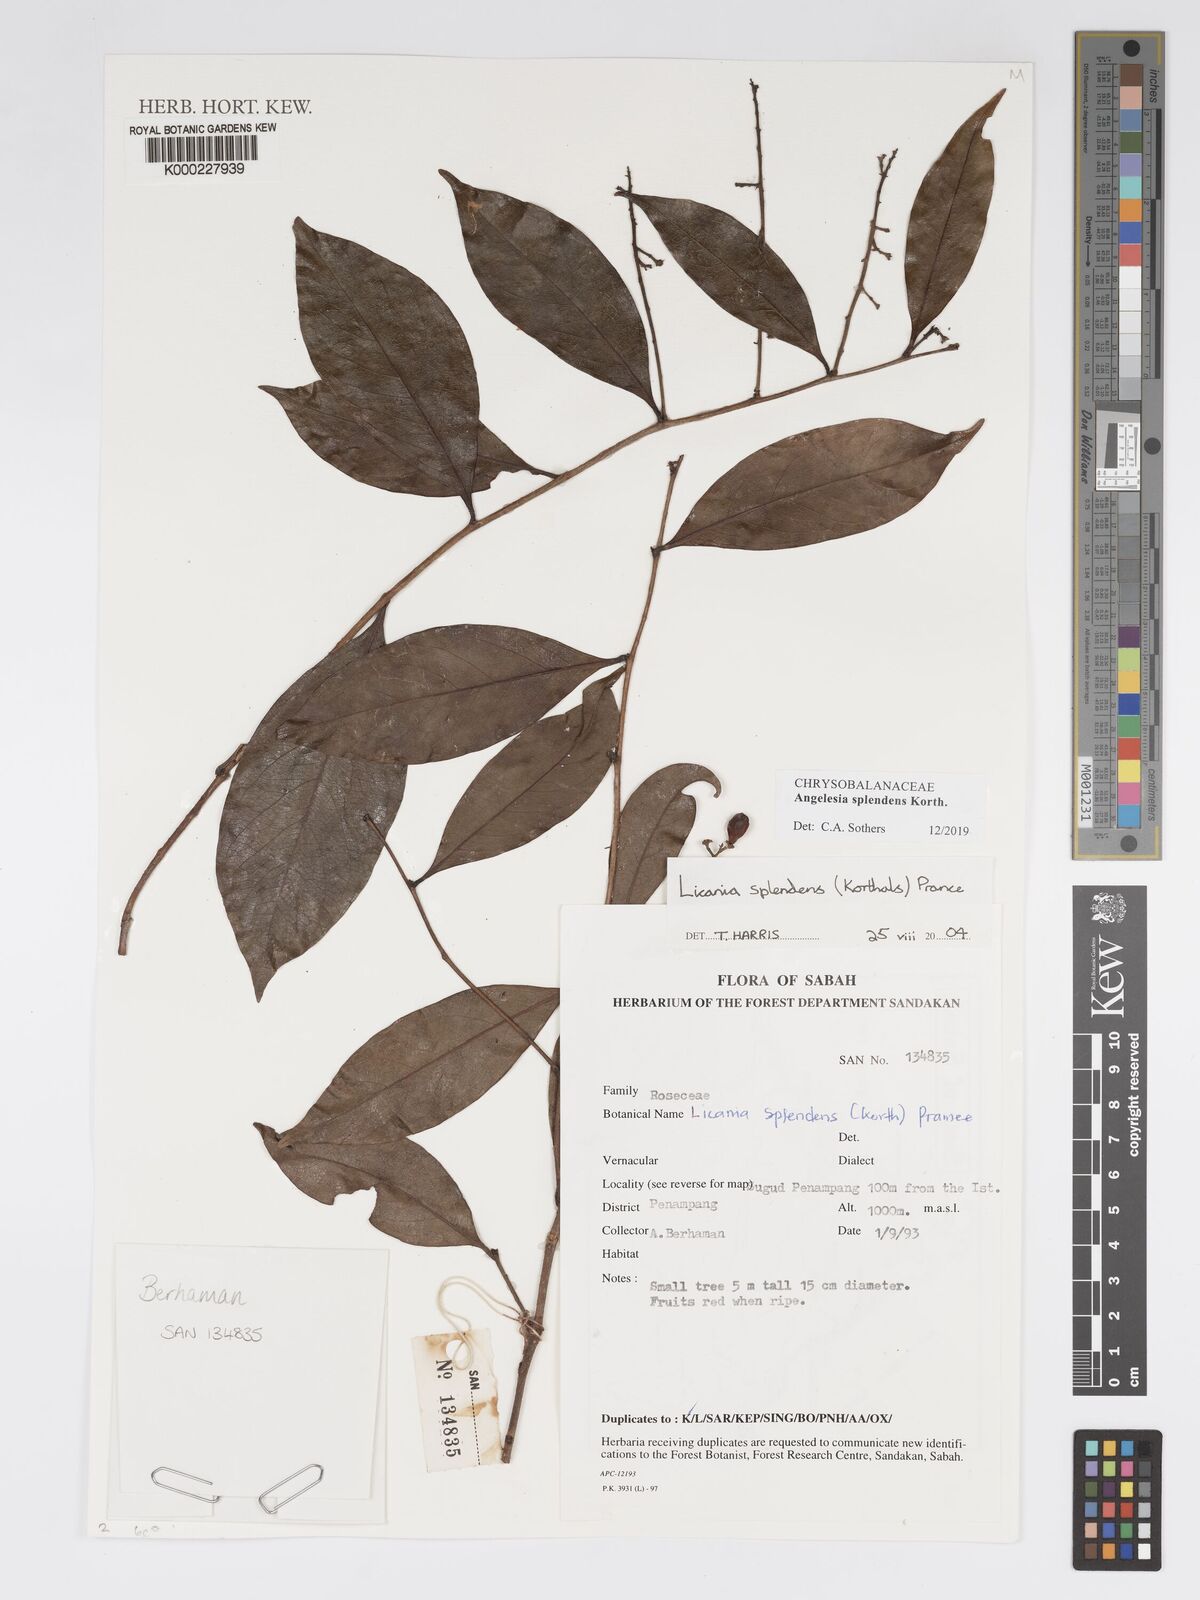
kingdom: Plantae
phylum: Tracheophyta
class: Magnoliopsida
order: Malpighiales
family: Chrysobalanaceae
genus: Angelesia
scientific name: Angelesia splendens
